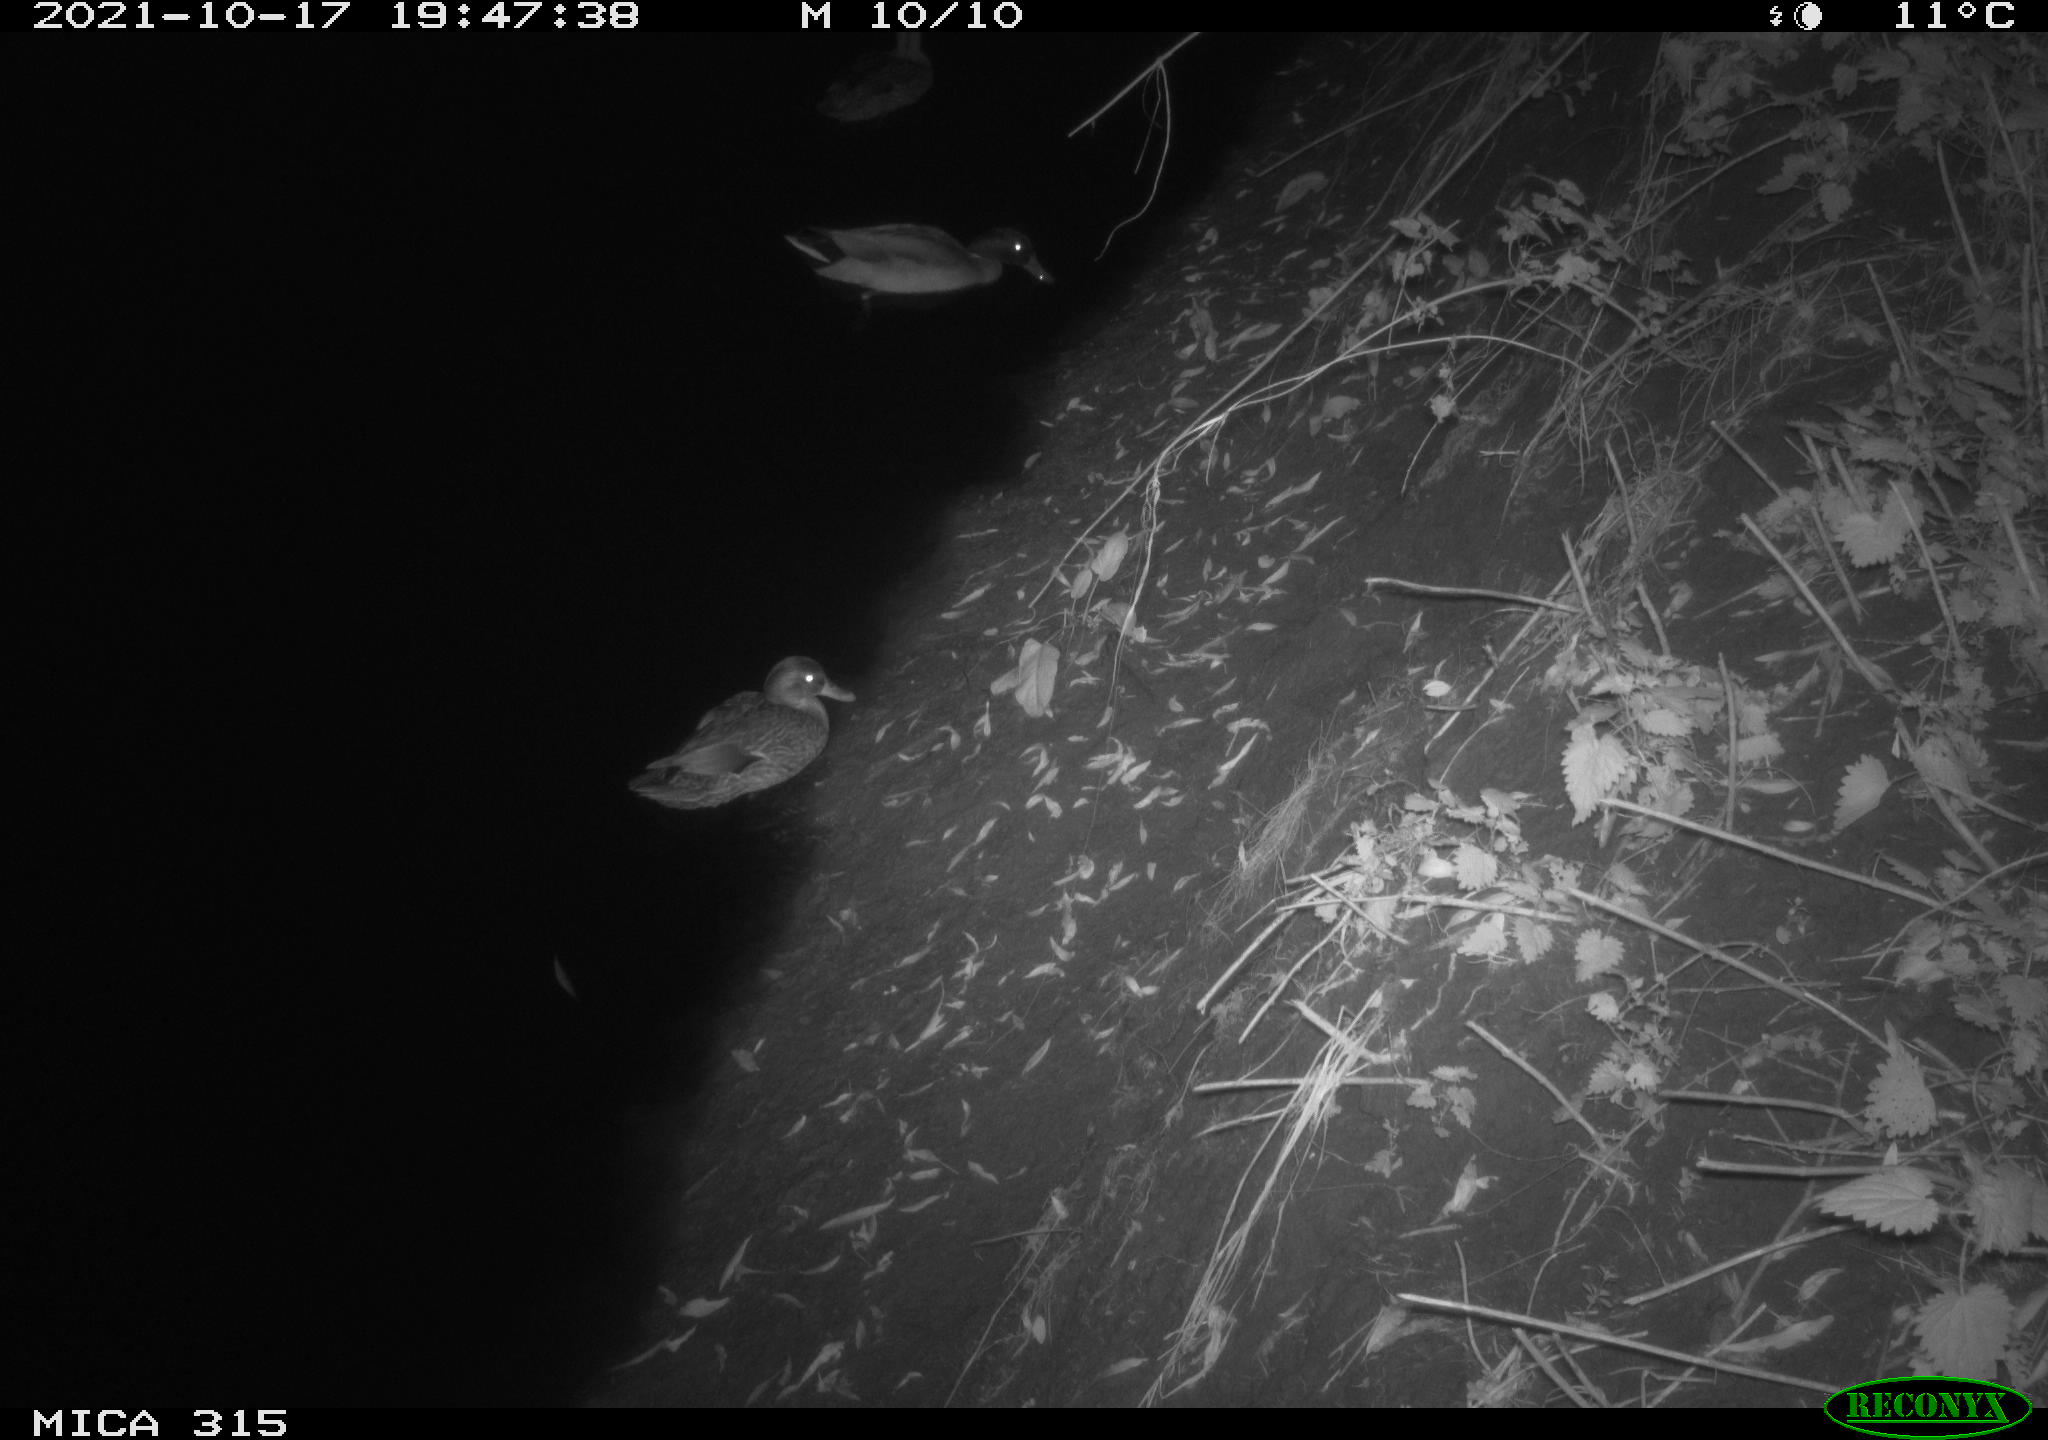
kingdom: Animalia
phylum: Chordata
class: Aves
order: Anseriformes
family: Anatidae
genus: Anas
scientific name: Anas platyrhynchos
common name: Mallard
